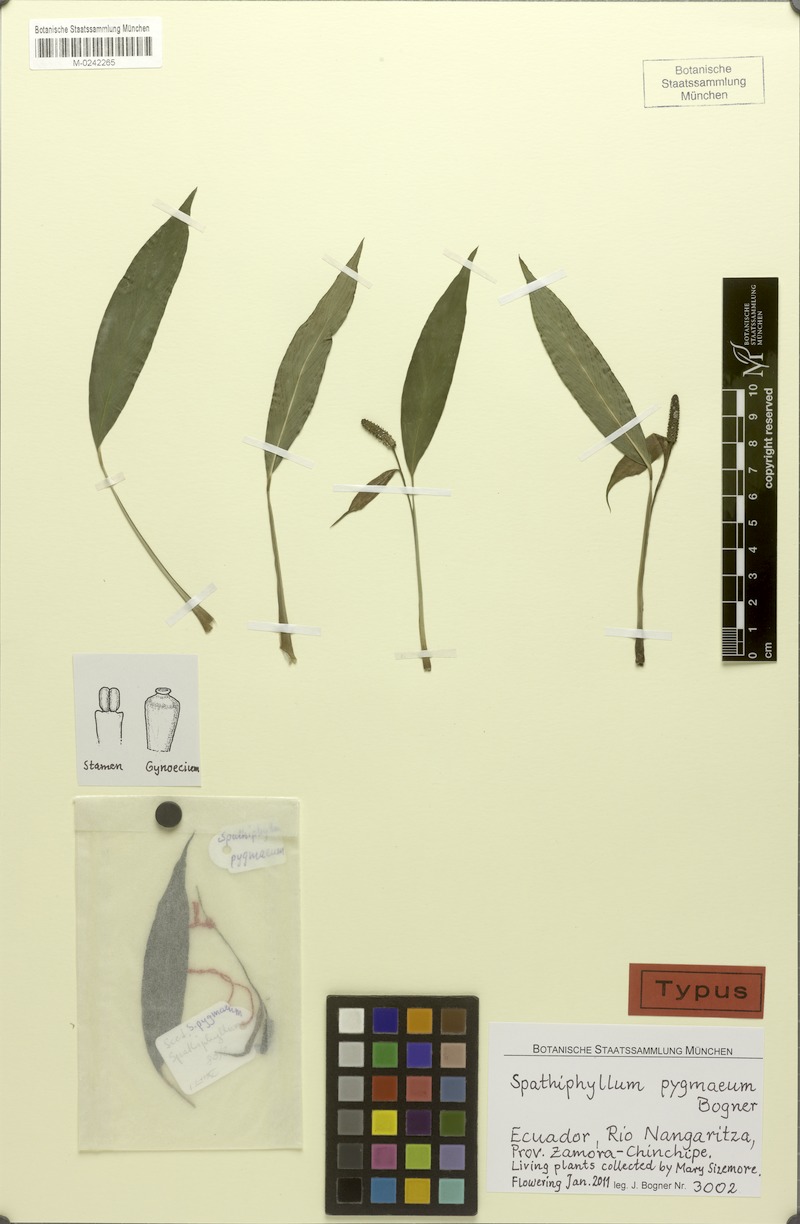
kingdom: Plantae
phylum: Tracheophyta
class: Liliopsida
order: Alismatales
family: Araceae
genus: Spathiphyllum
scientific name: Spathiphyllum pygmaeum
